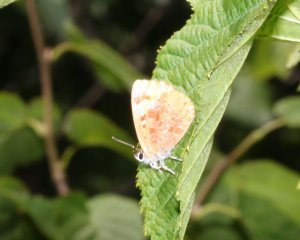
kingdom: Animalia
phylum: Arthropoda
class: Insecta
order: Lepidoptera
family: Lycaenidae
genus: Feniseca
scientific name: Feniseca tarquinius
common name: Harvester
